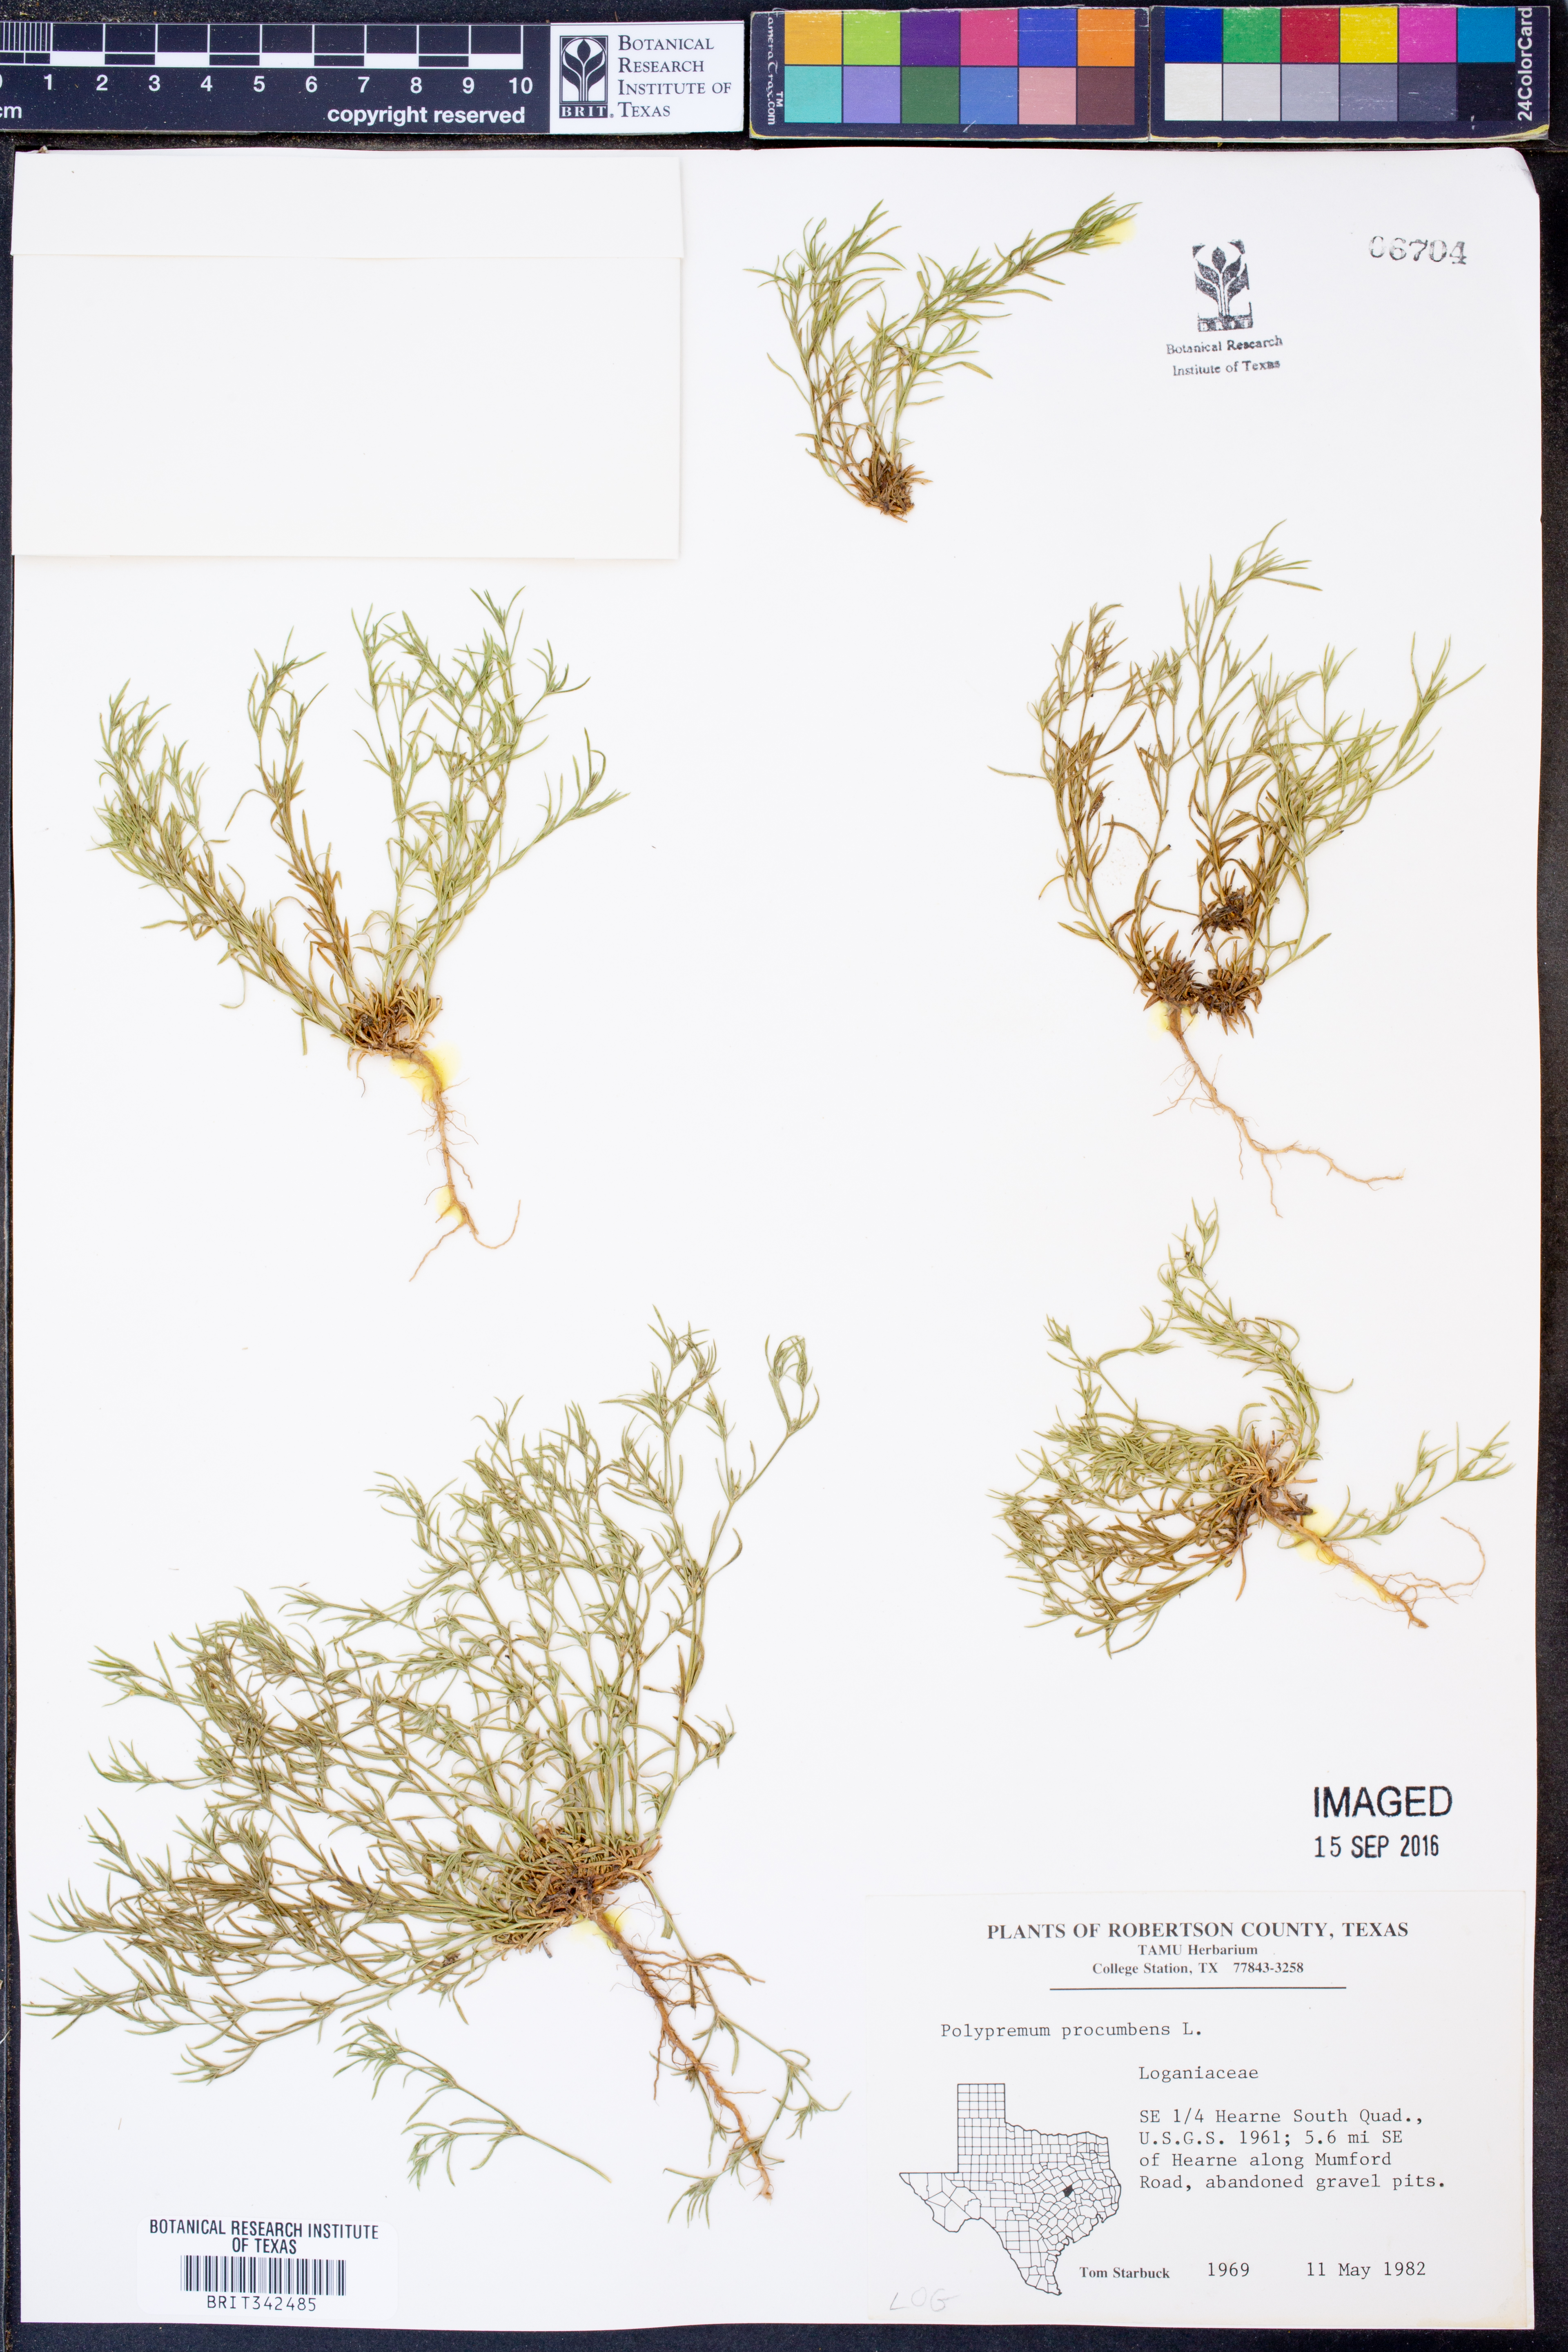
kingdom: Plantae
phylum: Tracheophyta
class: Magnoliopsida
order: Lamiales
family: Tetrachondraceae
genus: Polypremum
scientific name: Polypremum procumbens
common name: Juniper-leaf
